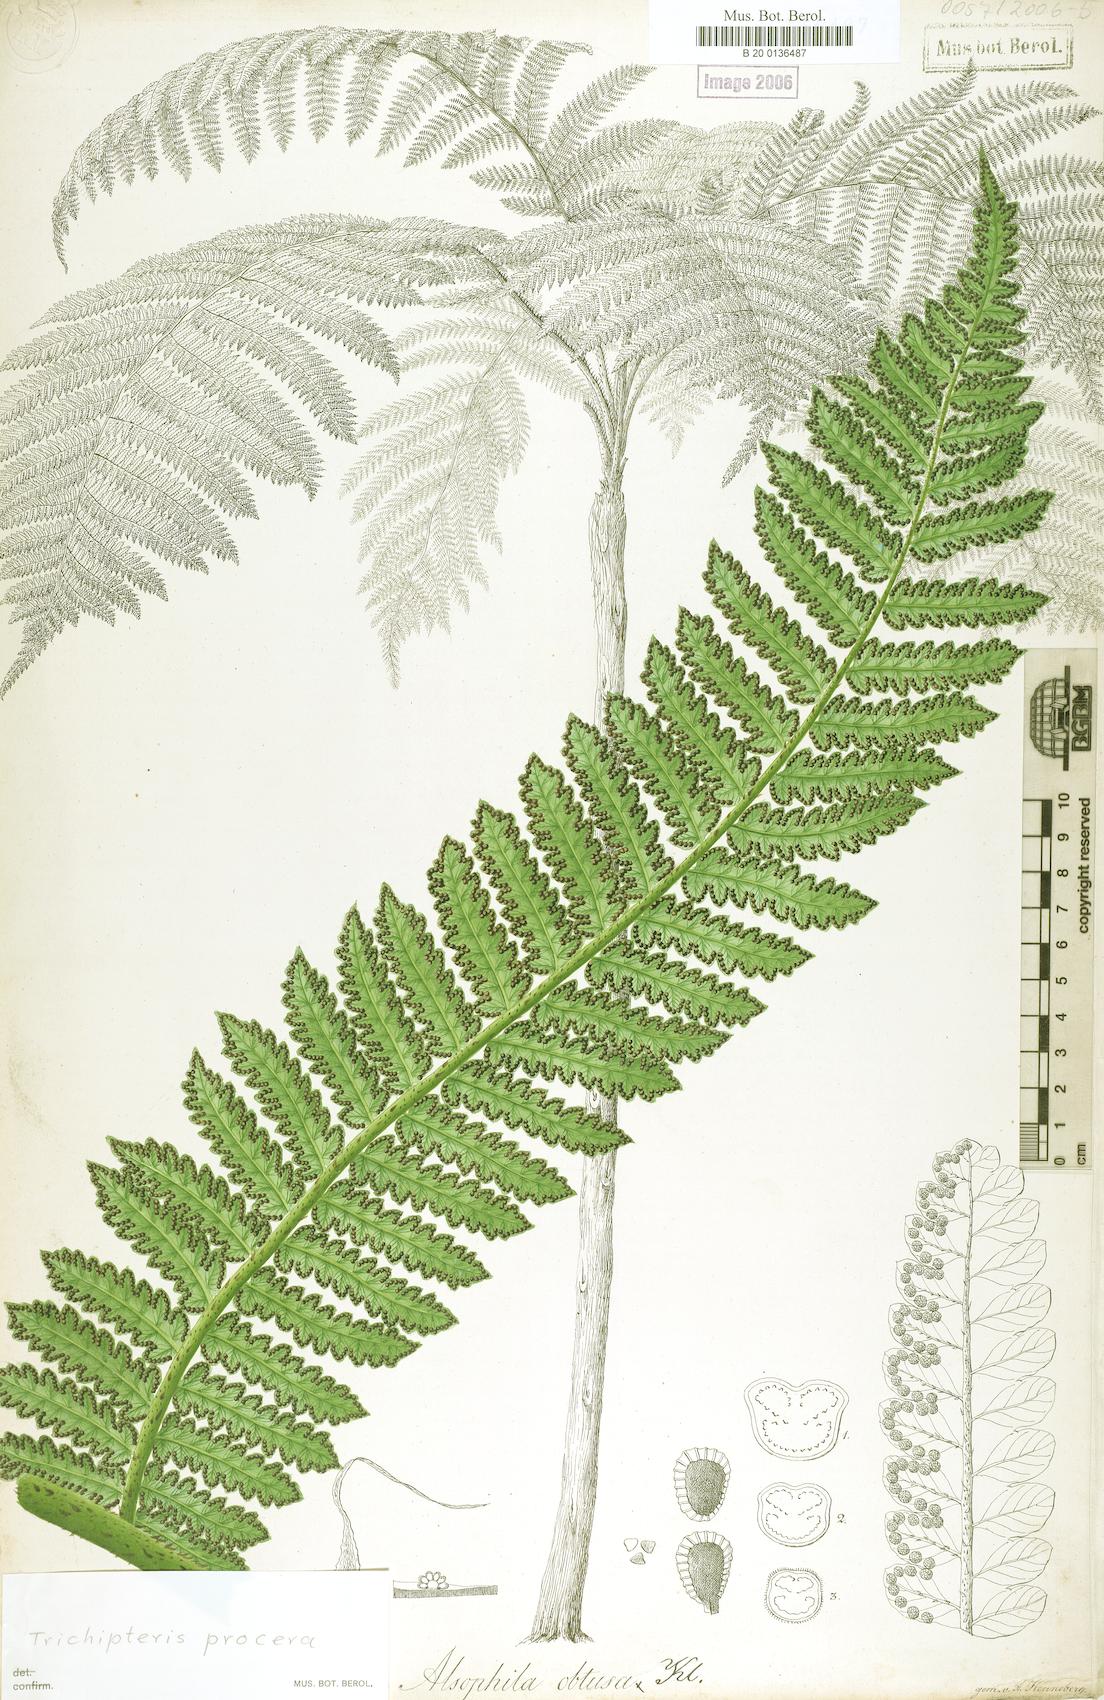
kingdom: Plantae
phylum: Tracheophyta
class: Polypodiopsida
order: Cyatheales
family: Cyatheaceae
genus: Cyathea
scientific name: Cyathea pungens
